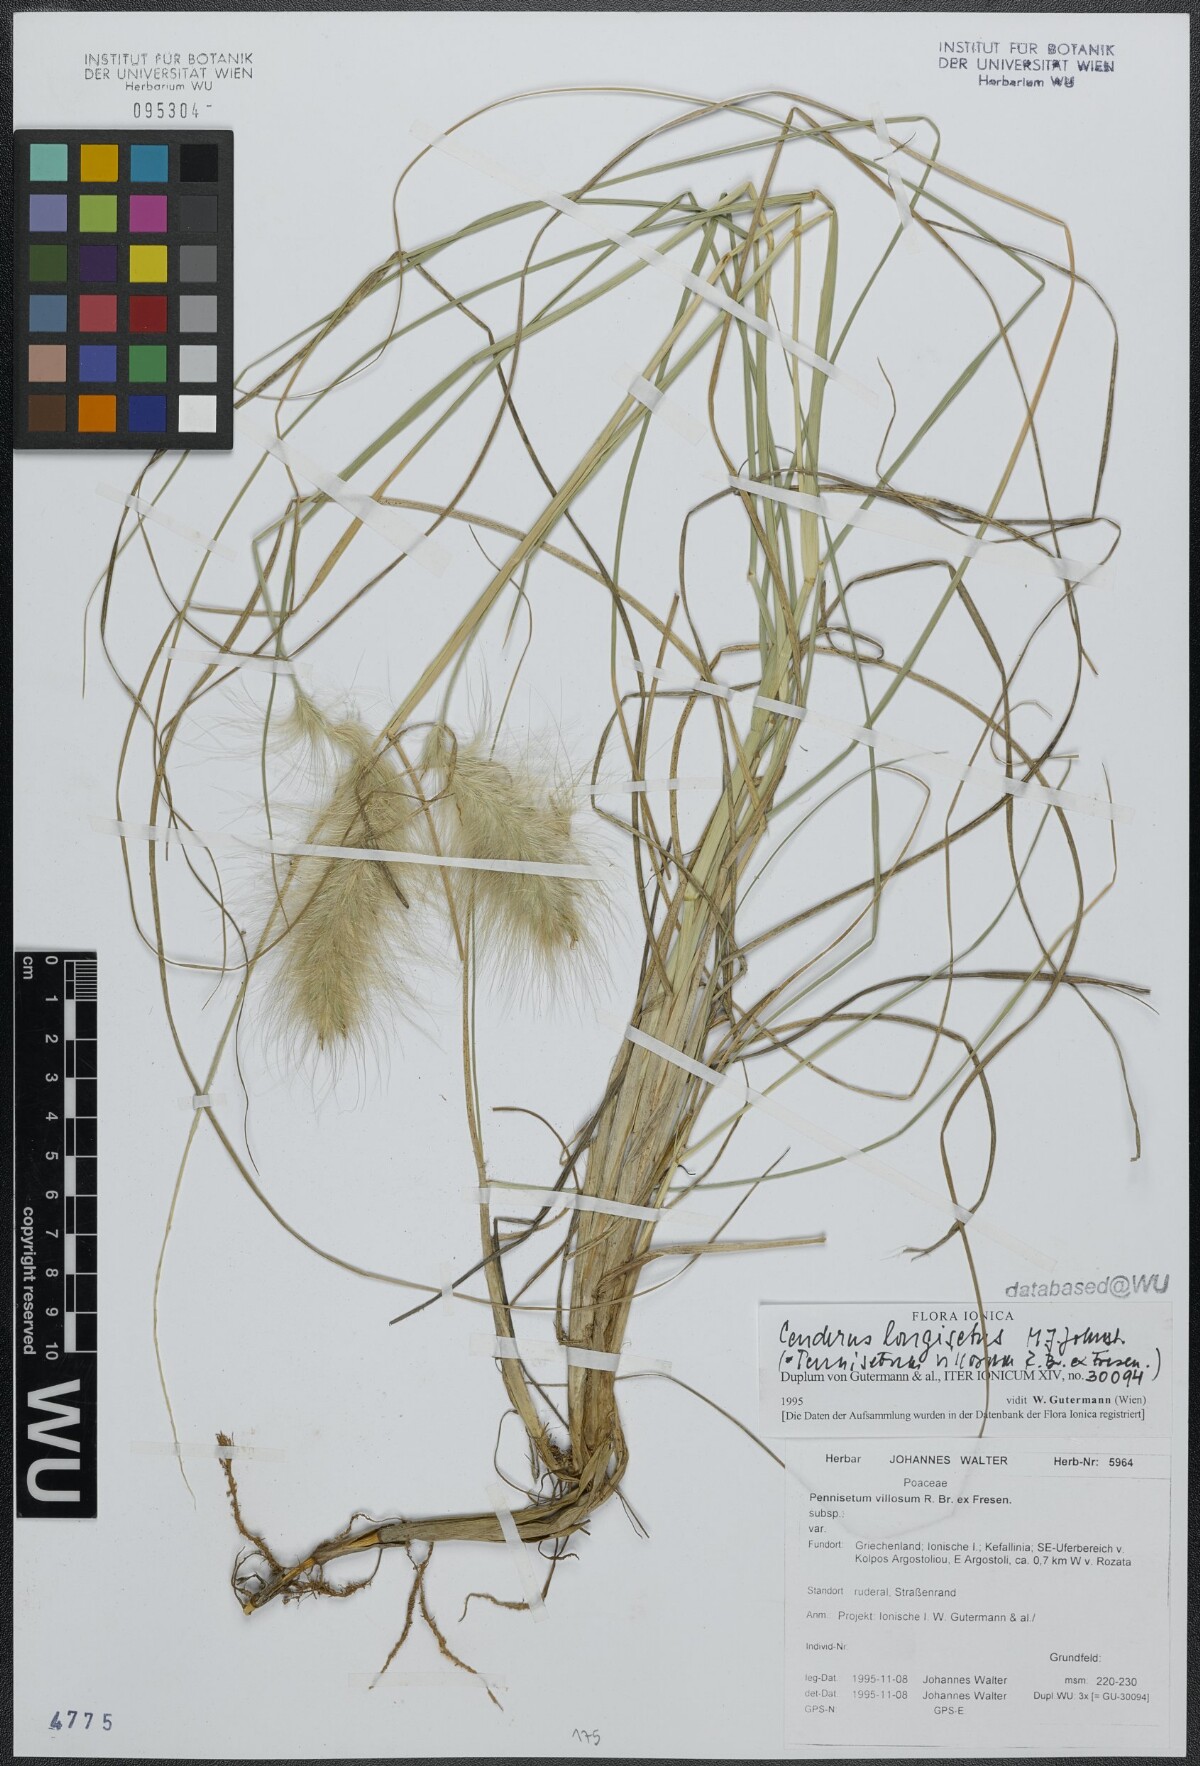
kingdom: Plantae
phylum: Tracheophyta
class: Liliopsida
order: Poales
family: Poaceae
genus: Cenchrus
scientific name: Cenchrus longisetus
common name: Feathertop
